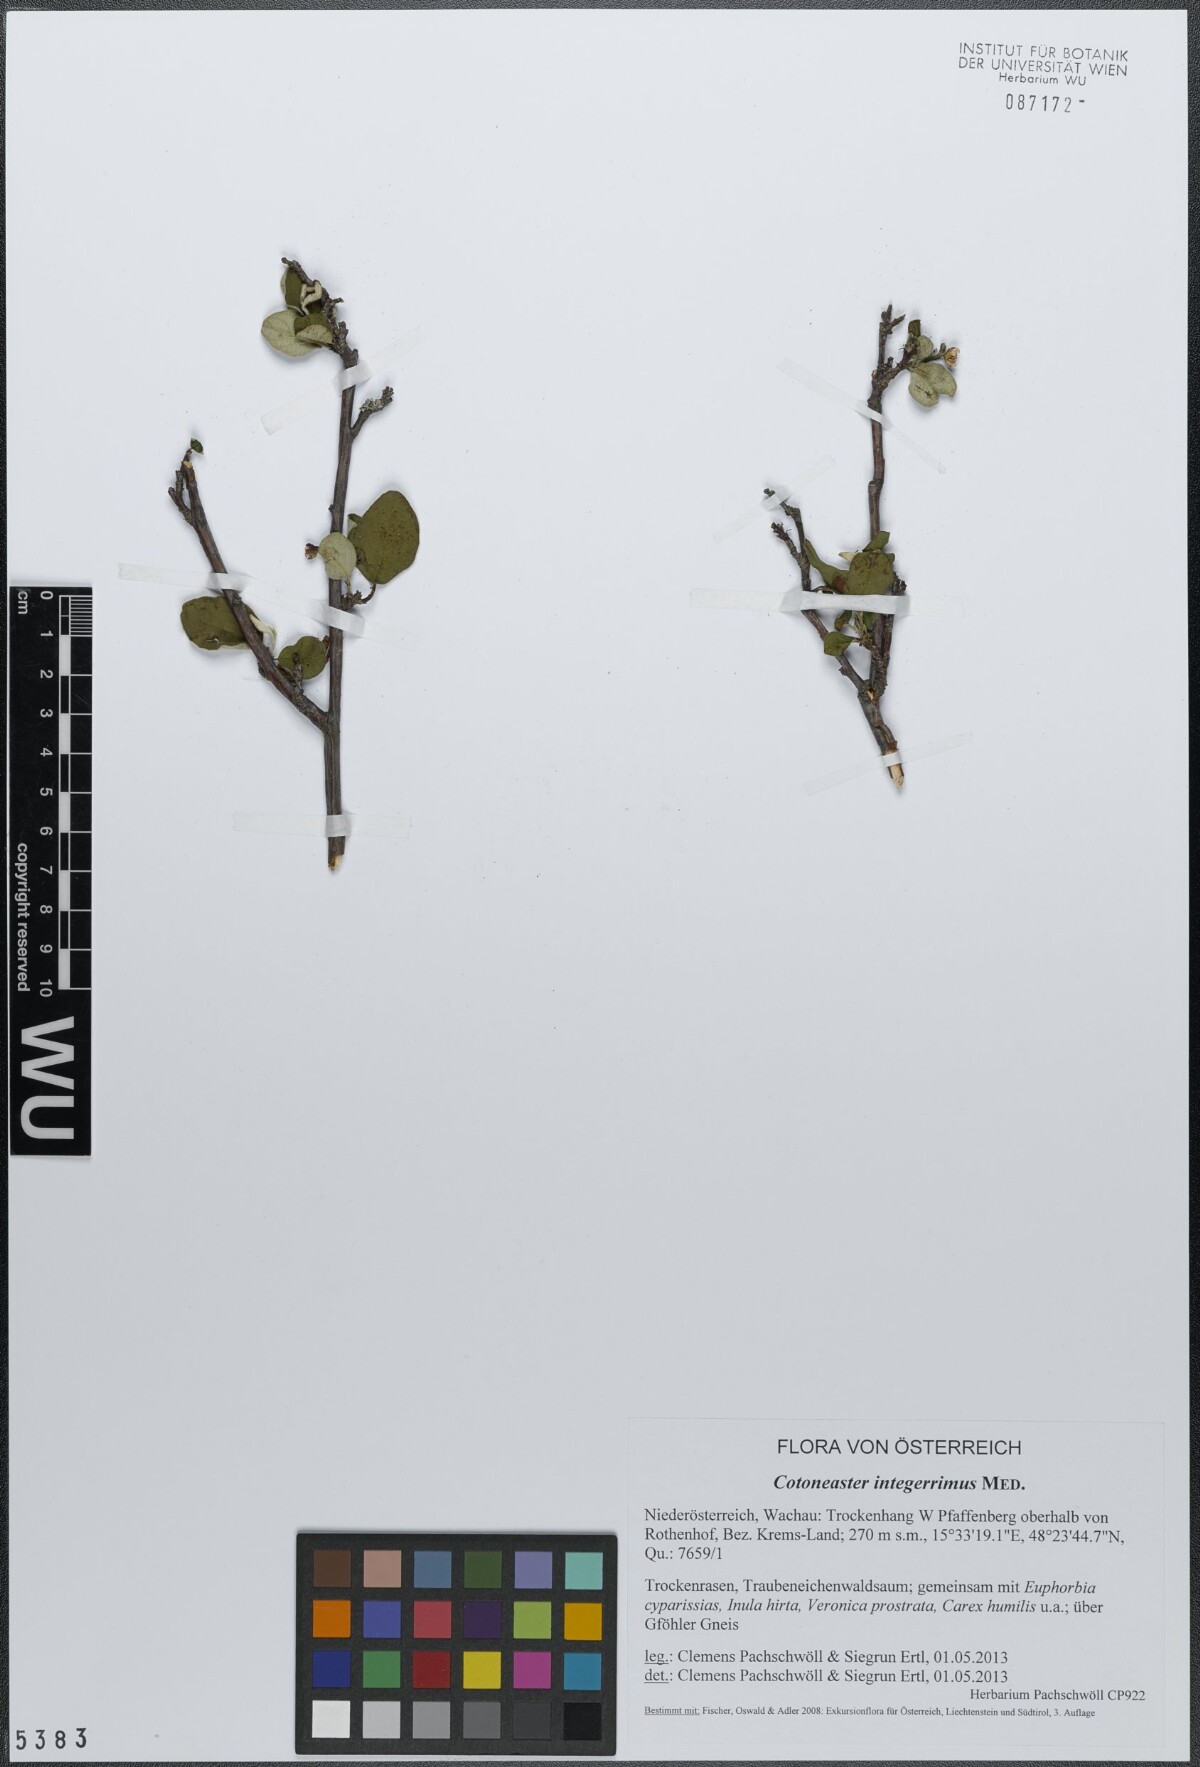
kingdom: Plantae
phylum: Tracheophyta
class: Magnoliopsida
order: Rosales
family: Rosaceae
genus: Cotoneaster
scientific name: Cotoneaster integerrimus
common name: Wild cotoneaster
